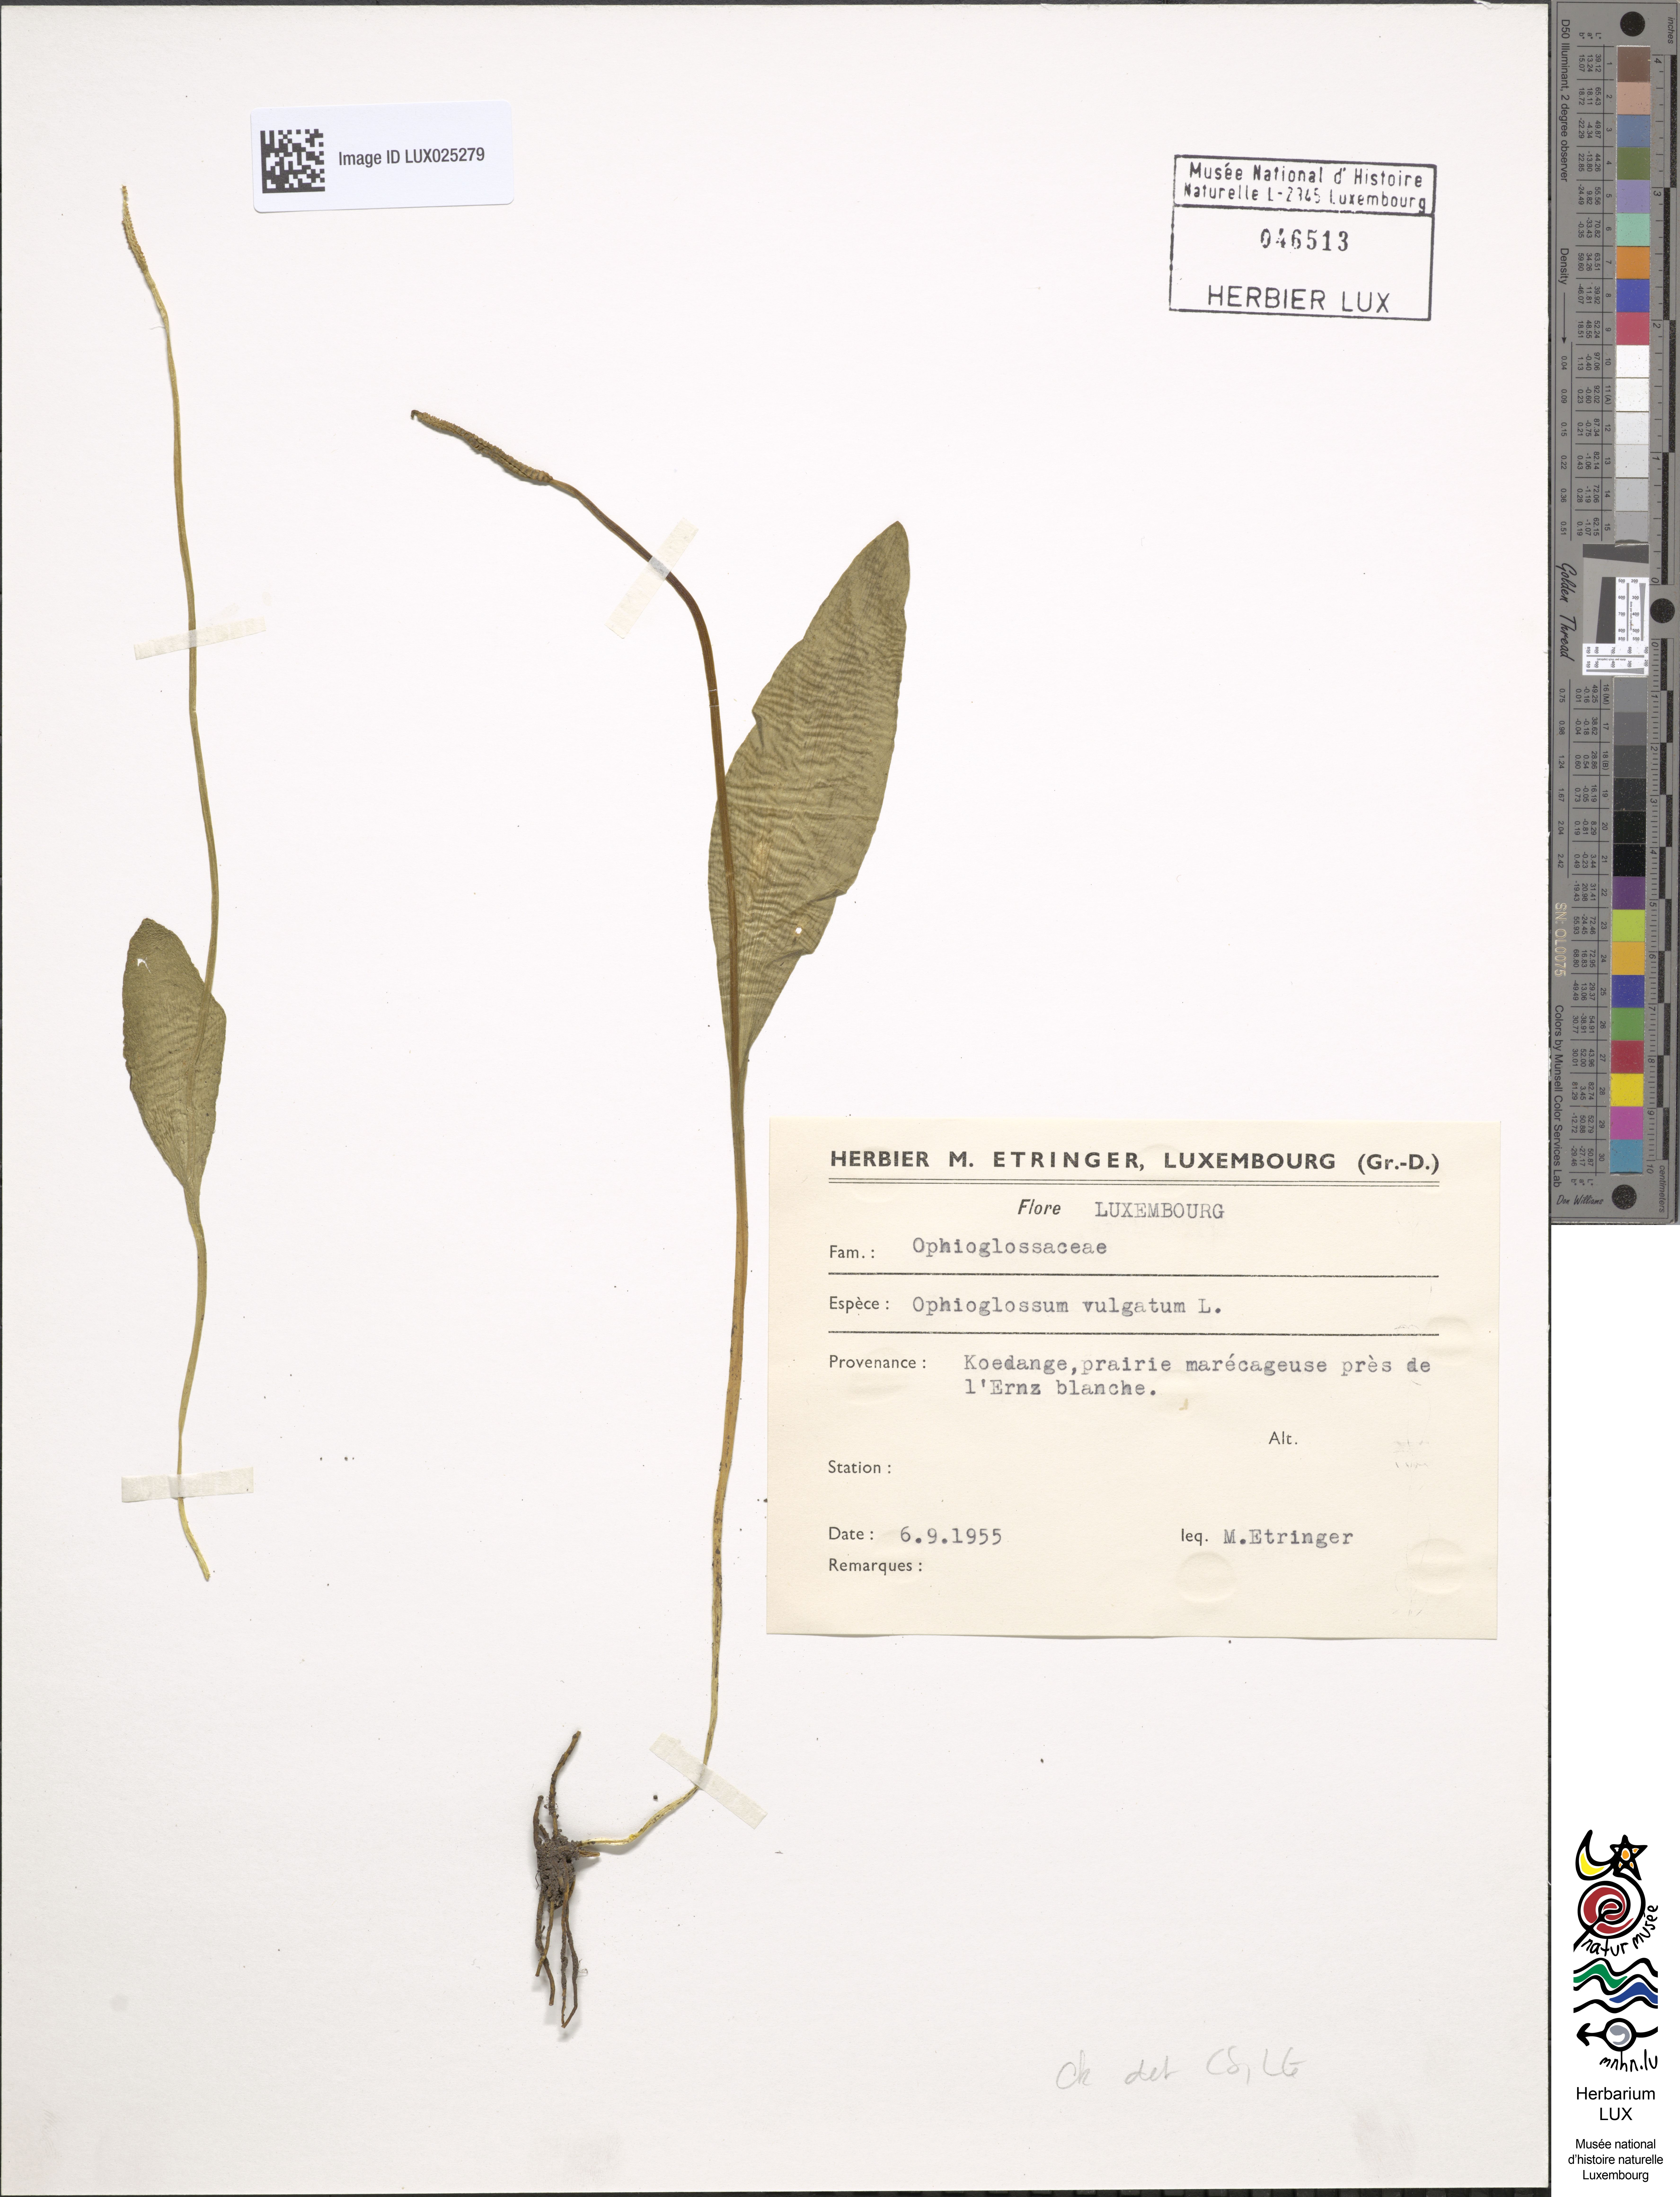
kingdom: Plantae
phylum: Tracheophyta
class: Polypodiopsida
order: Ophioglossales
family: Ophioglossaceae
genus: Ophioglossum
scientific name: Ophioglossum vulgatum
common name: Adder's-tongue
